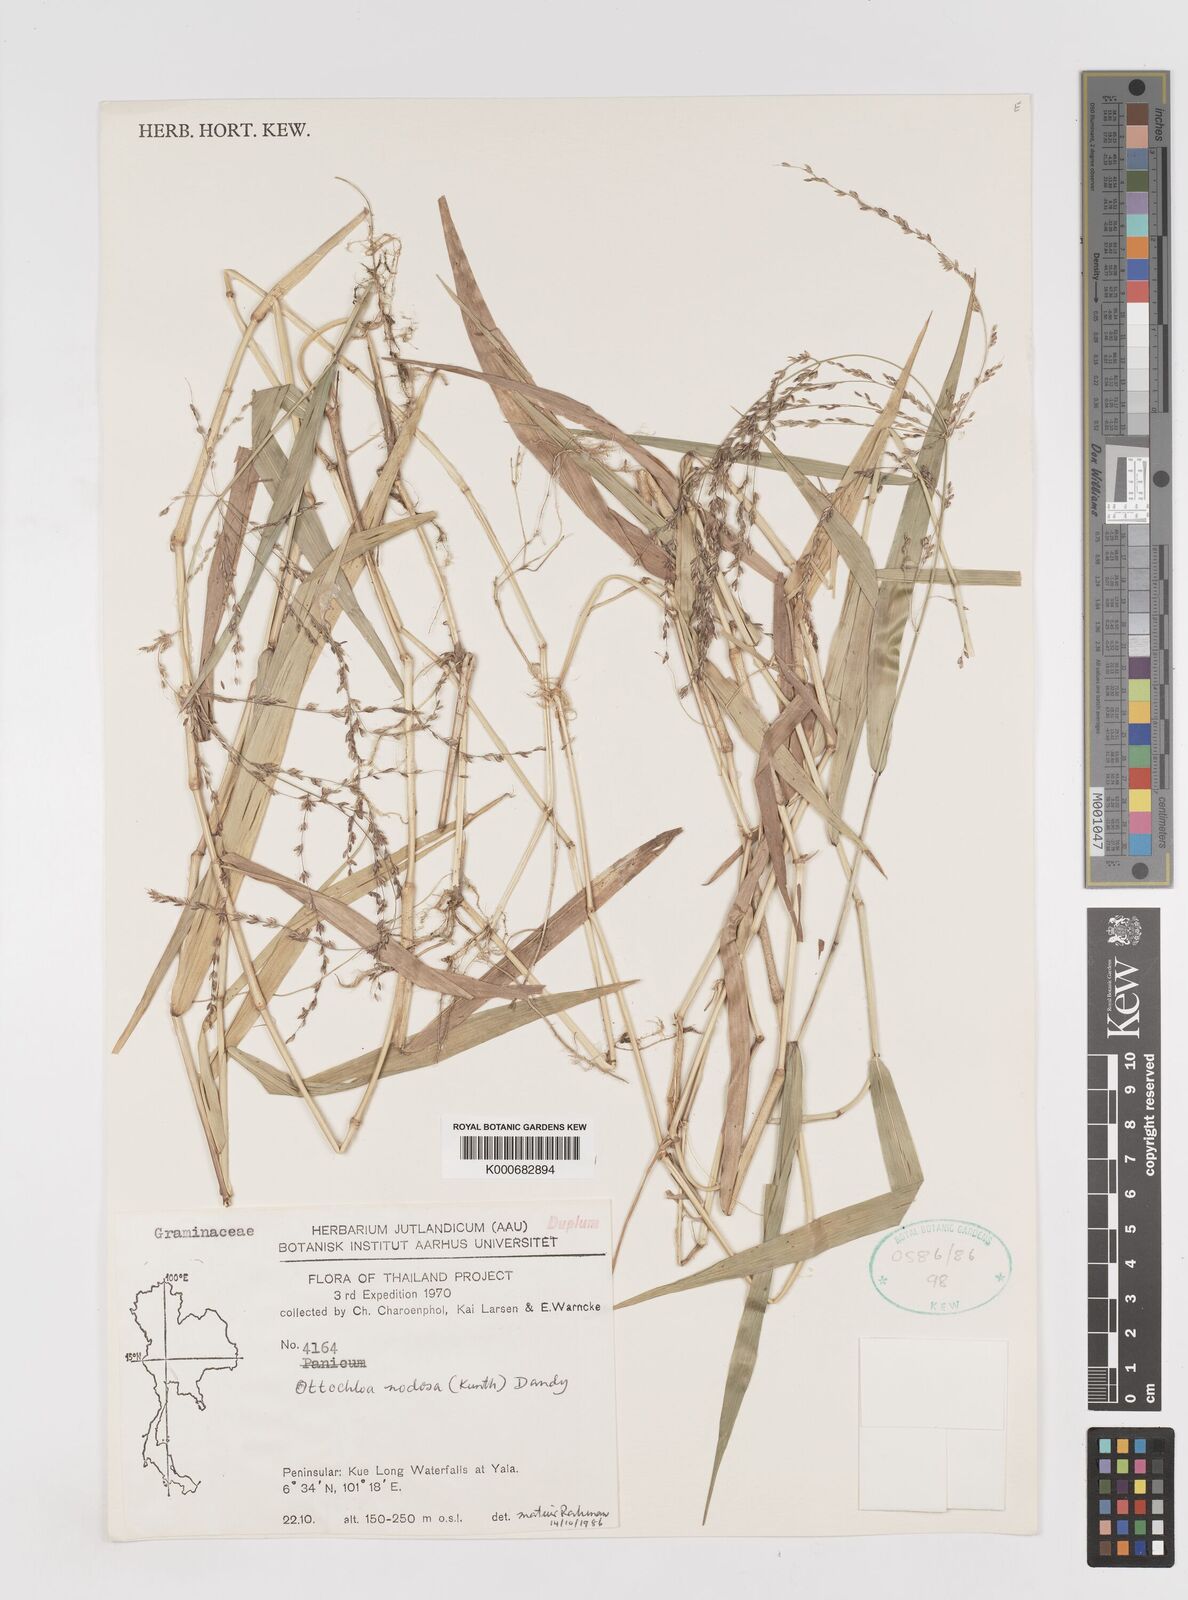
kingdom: Plantae
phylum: Tracheophyta
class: Liliopsida
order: Poales
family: Poaceae
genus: Ottochloa
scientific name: Ottochloa nodosa
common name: Slender-panic grass
